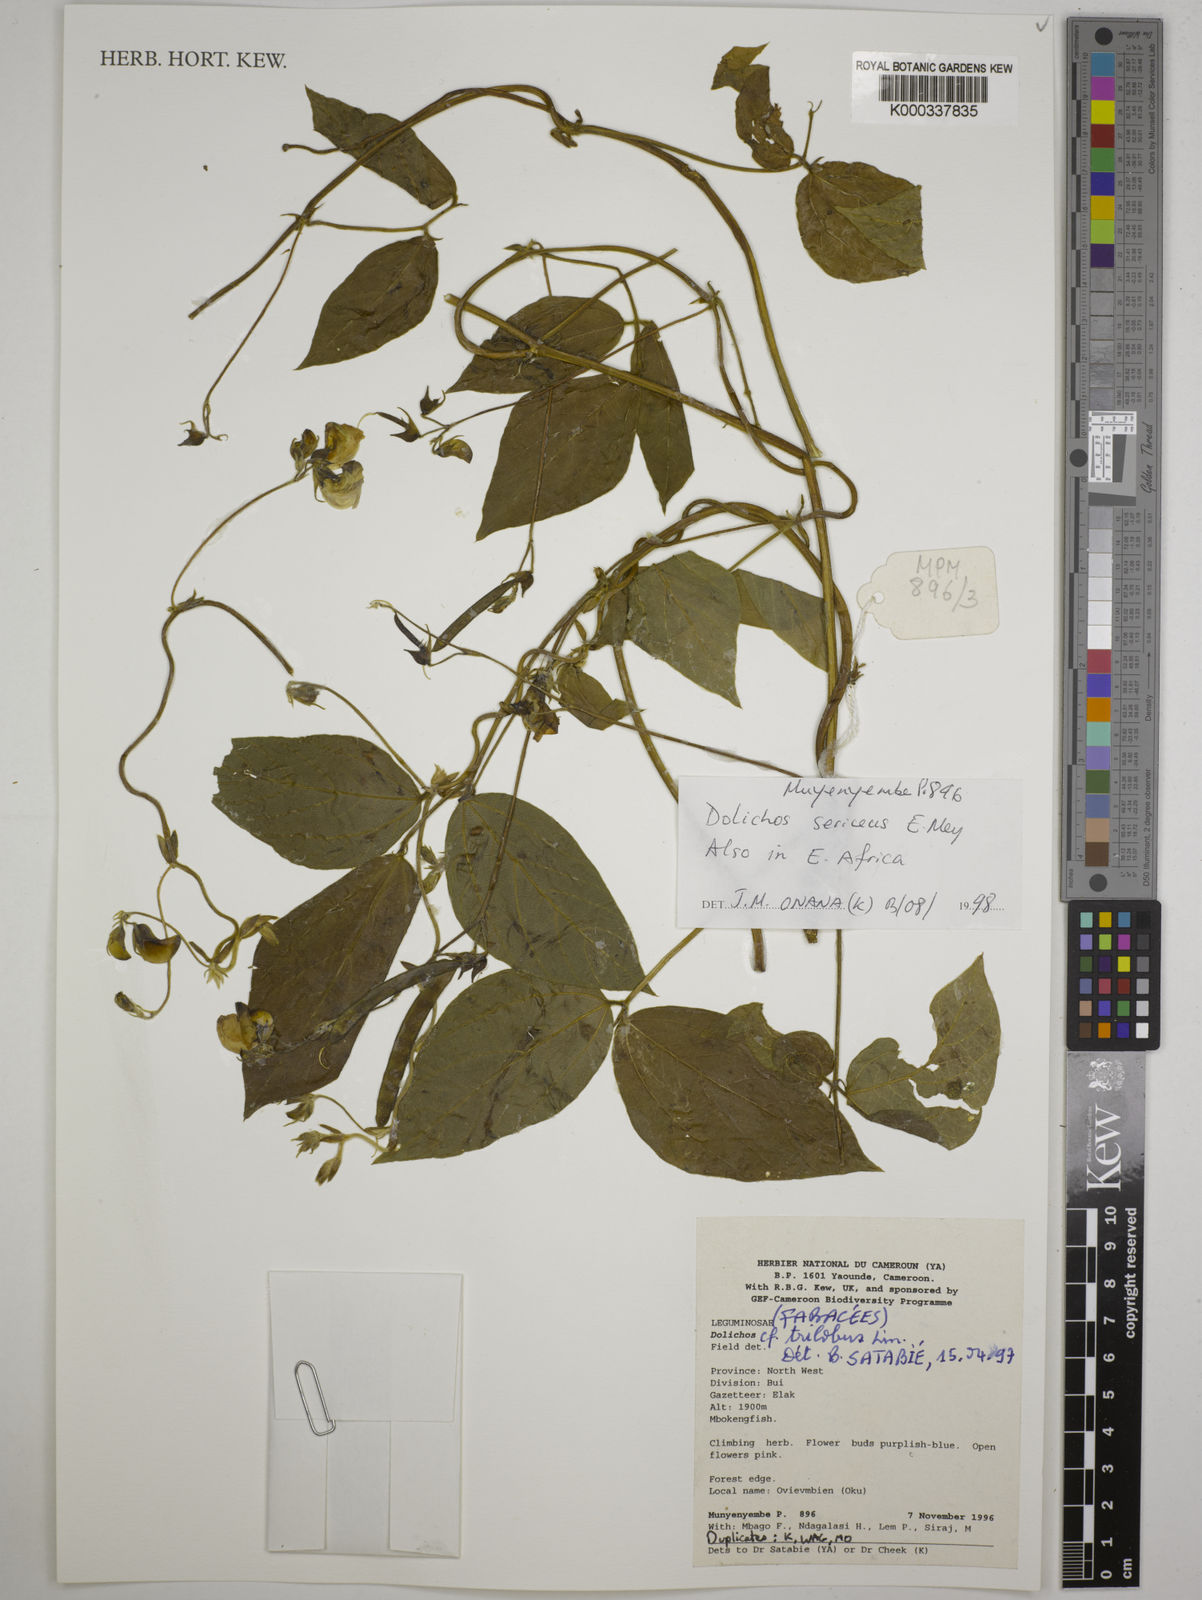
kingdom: Plantae
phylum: Tracheophyta
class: Magnoliopsida
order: Fabales
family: Fabaceae
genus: Dolichos
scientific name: Dolichos
